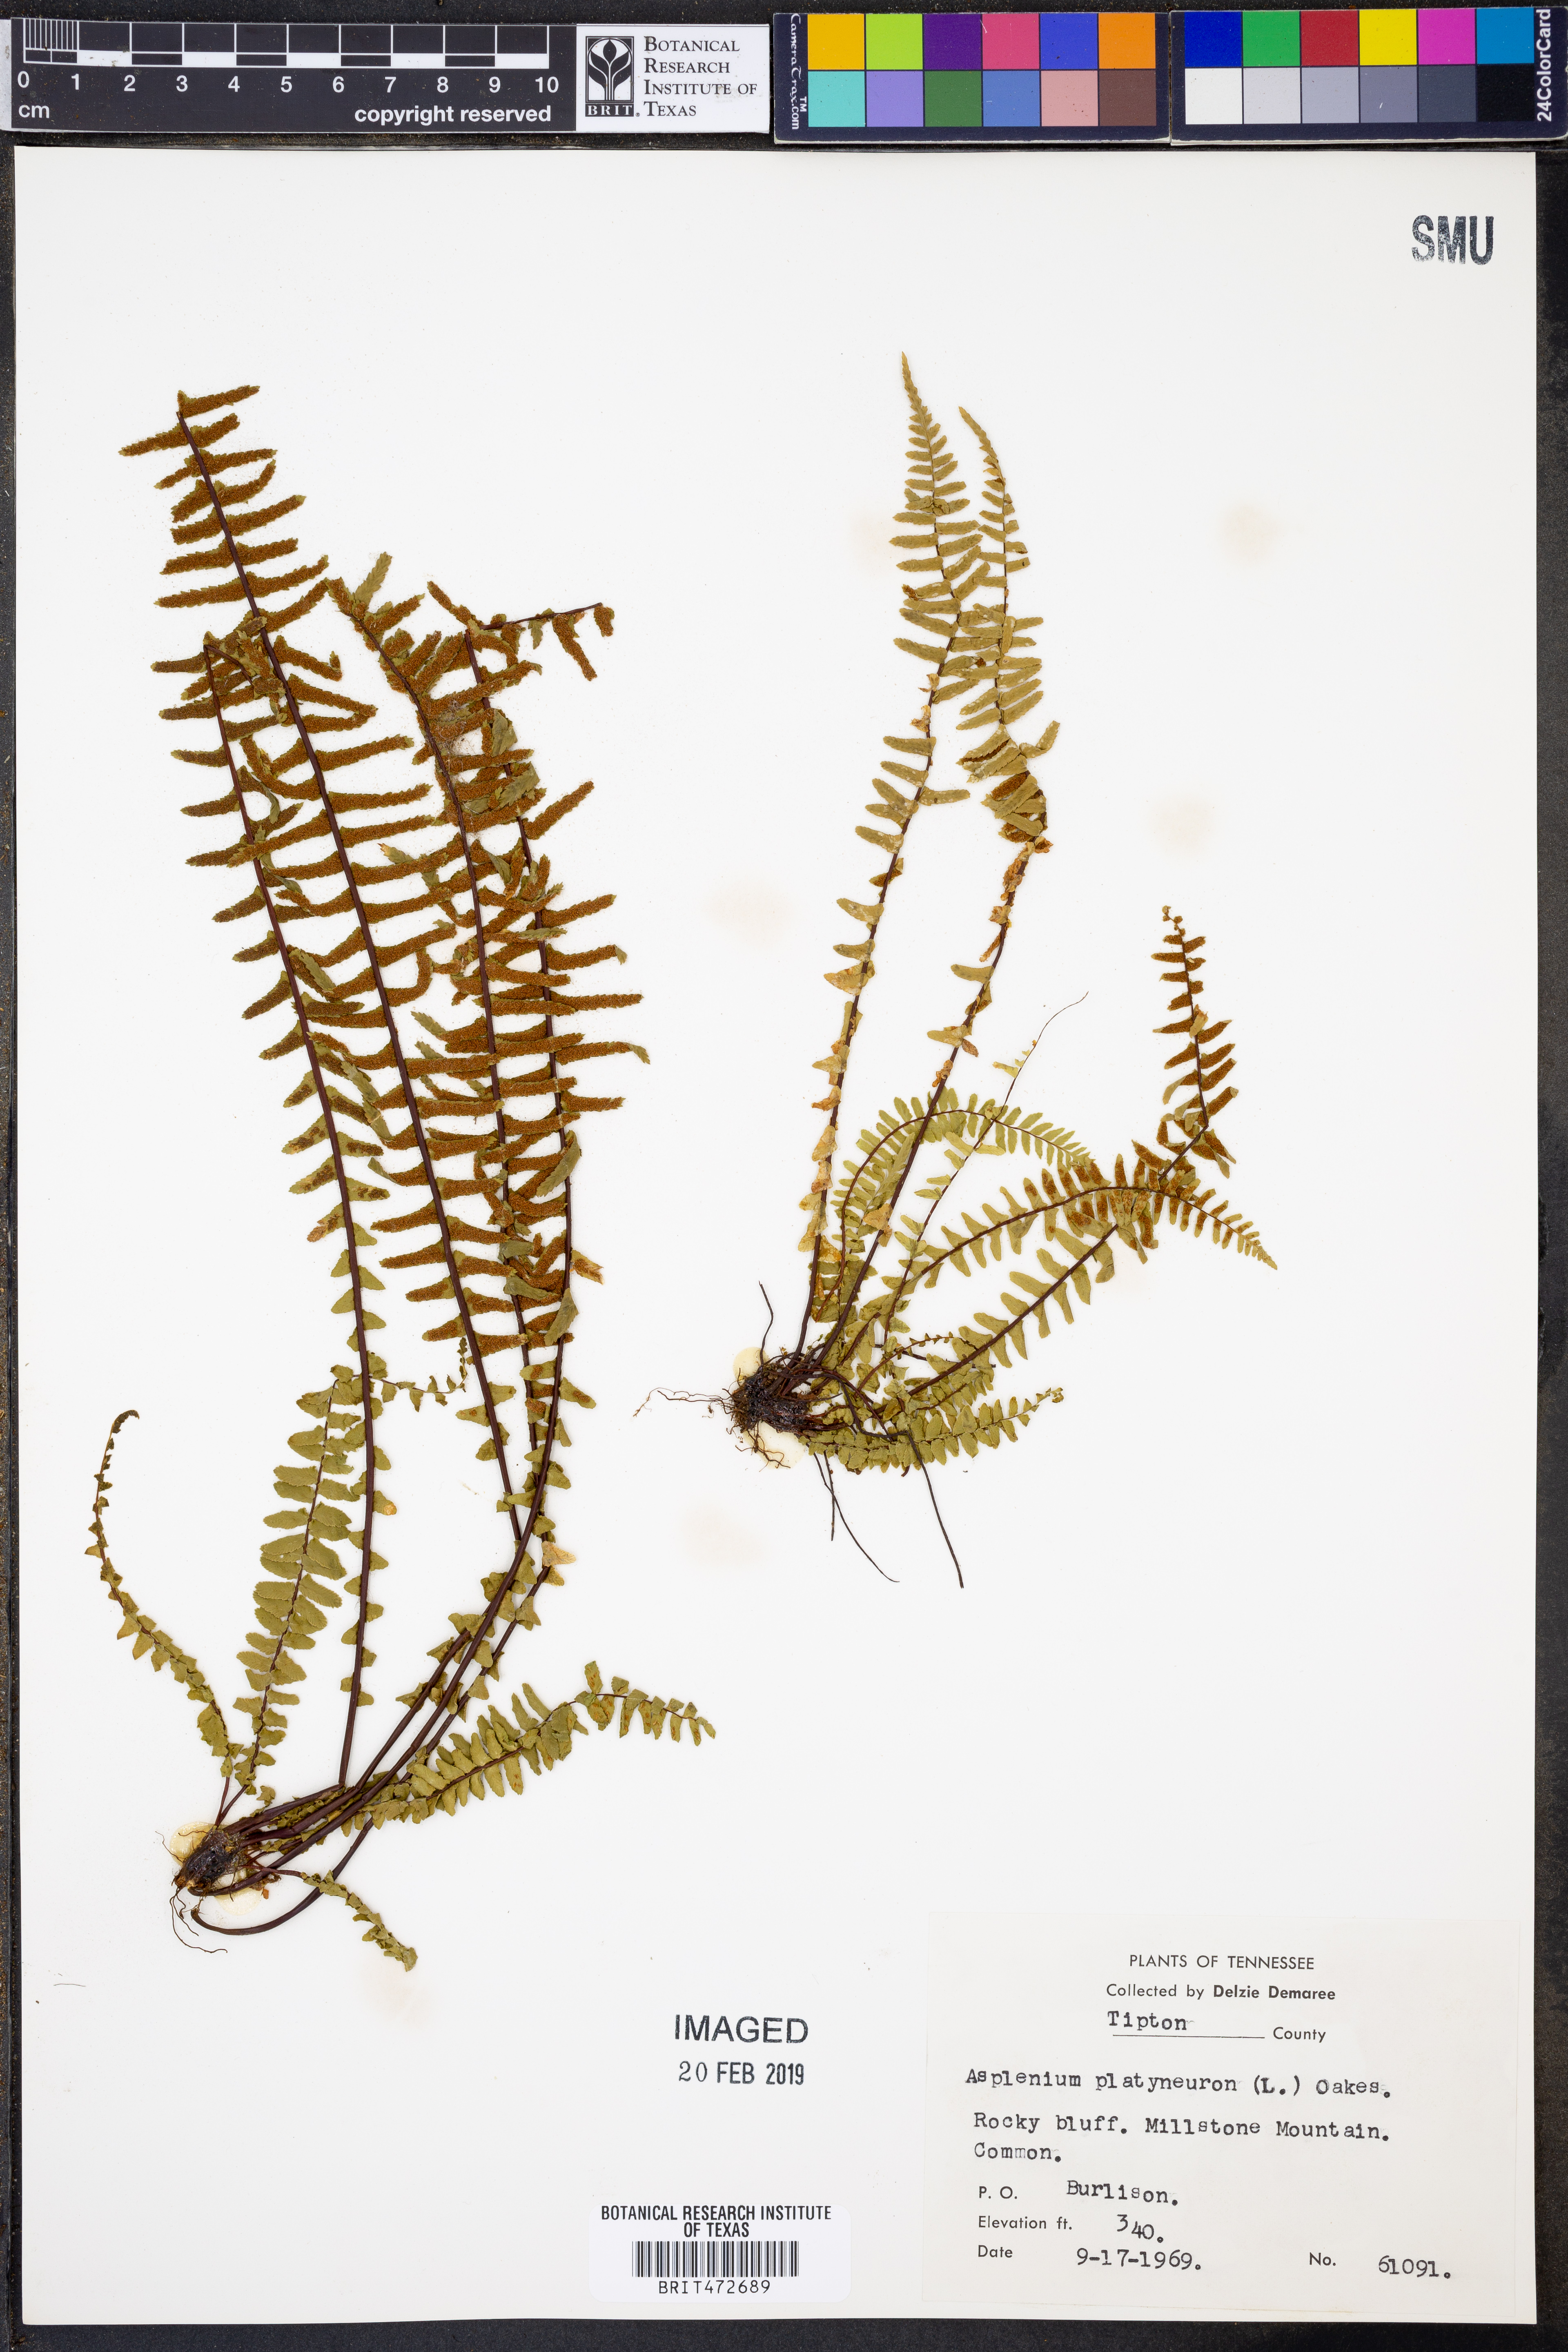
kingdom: Plantae
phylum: Tracheophyta
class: Polypodiopsida
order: Polypodiales
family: Aspleniaceae
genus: Asplenium
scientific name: Asplenium platyneuron
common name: Ebony spleenwort
